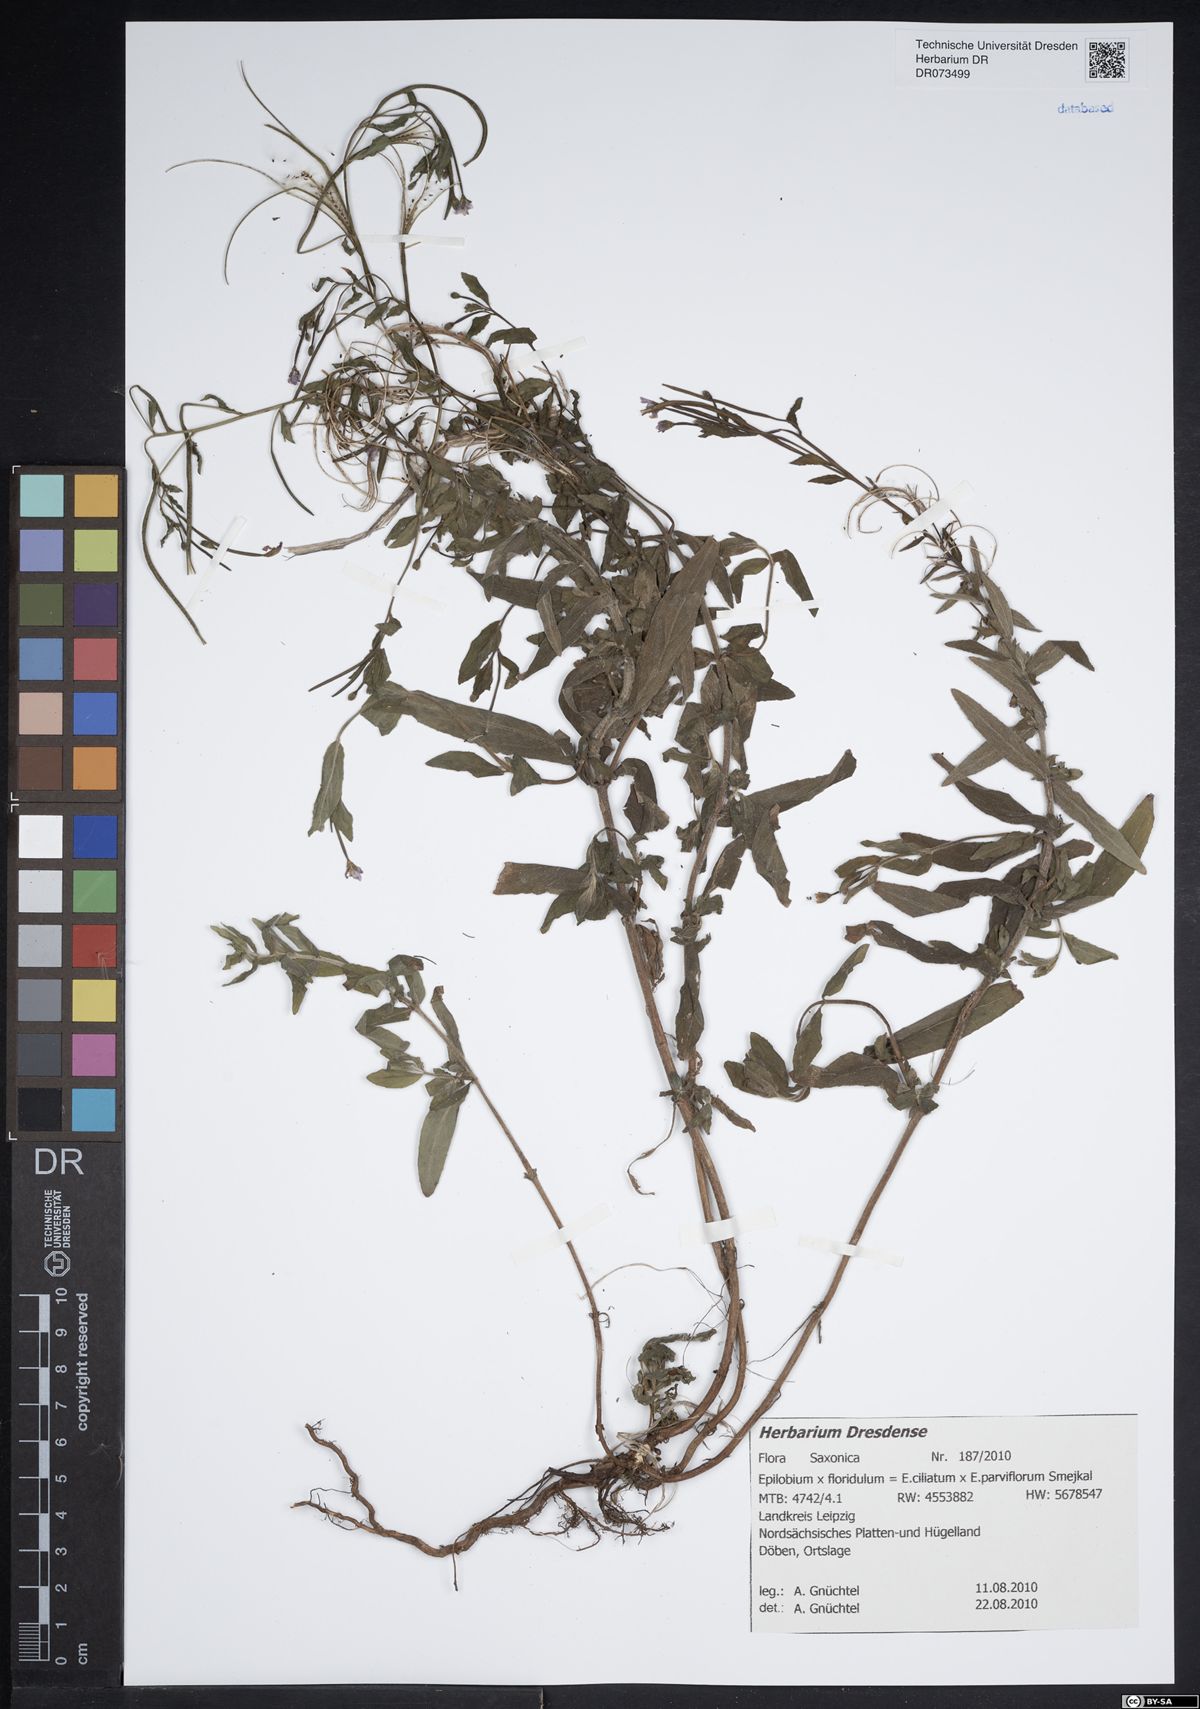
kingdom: Plantae
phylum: Tracheophyta
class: Magnoliopsida
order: Myrtales
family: Onagraceae
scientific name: Onagraceae
